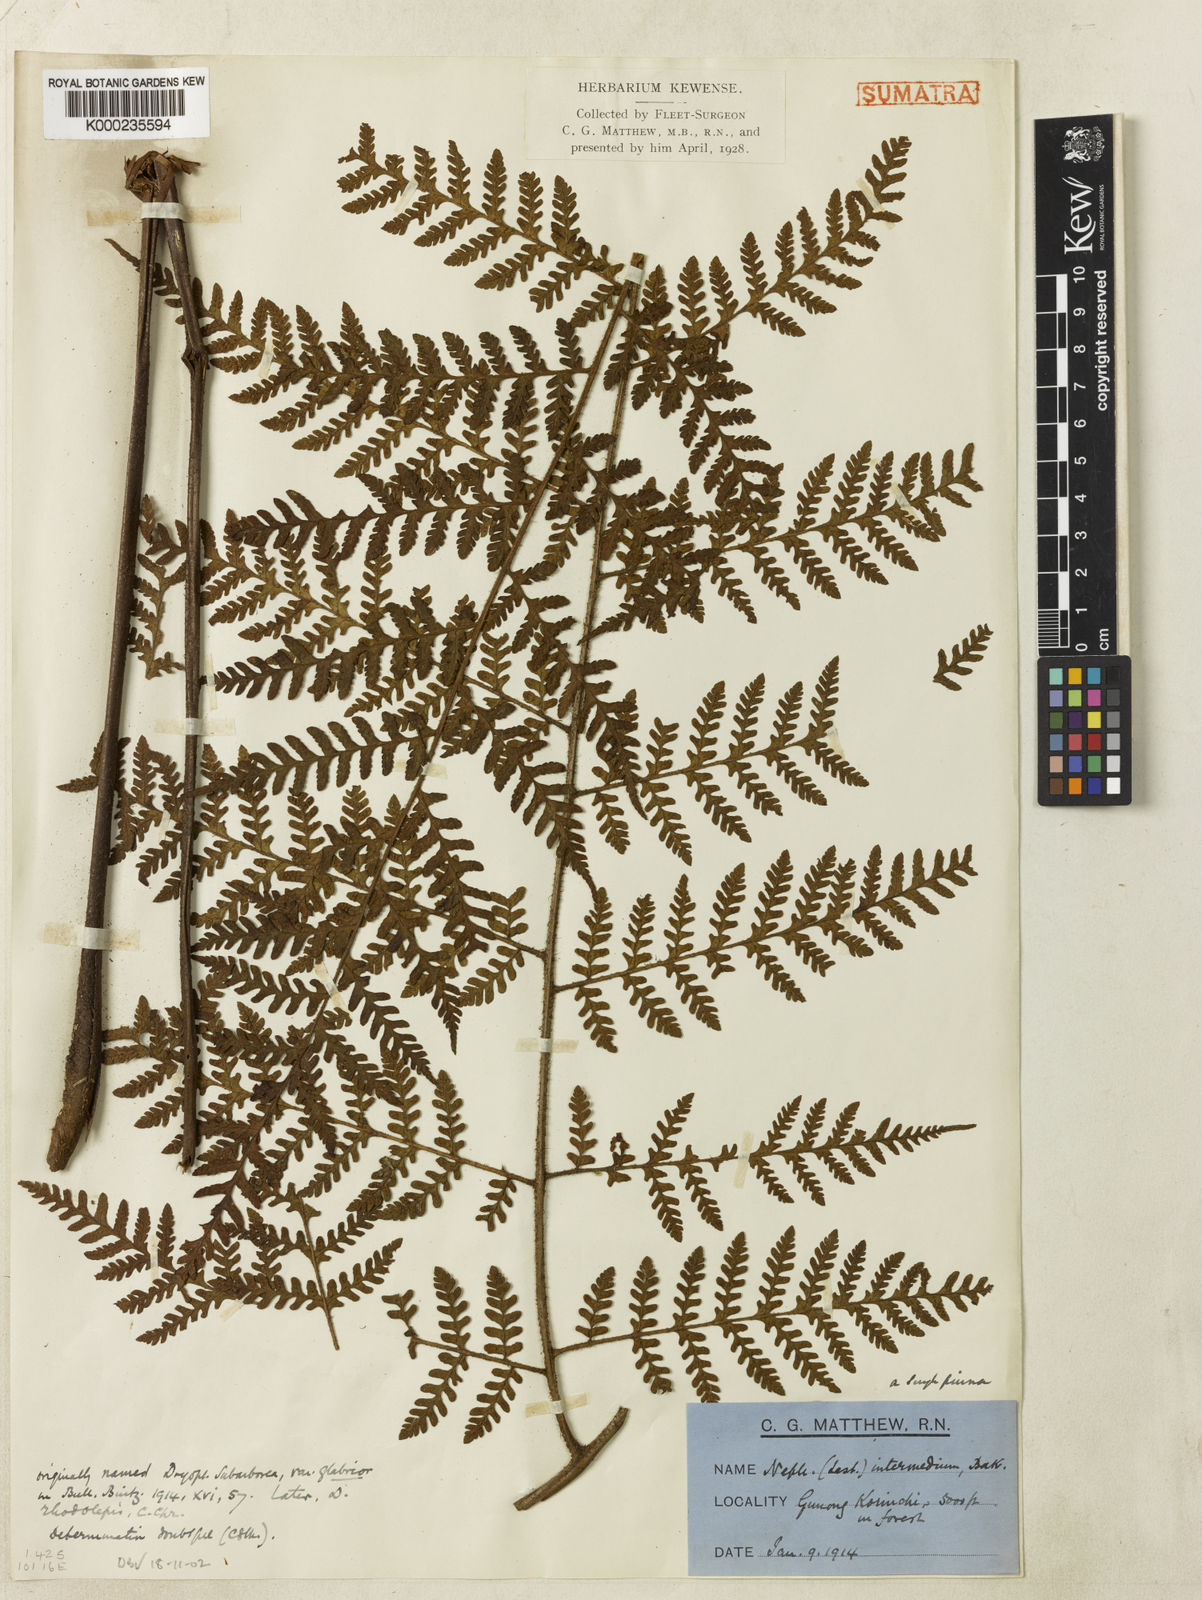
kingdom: Plantae
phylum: Tracheophyta
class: Polypodiopsida
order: Polypodiales
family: Dryopteridaceae
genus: Ctenitis
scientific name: Ctenitis elata
